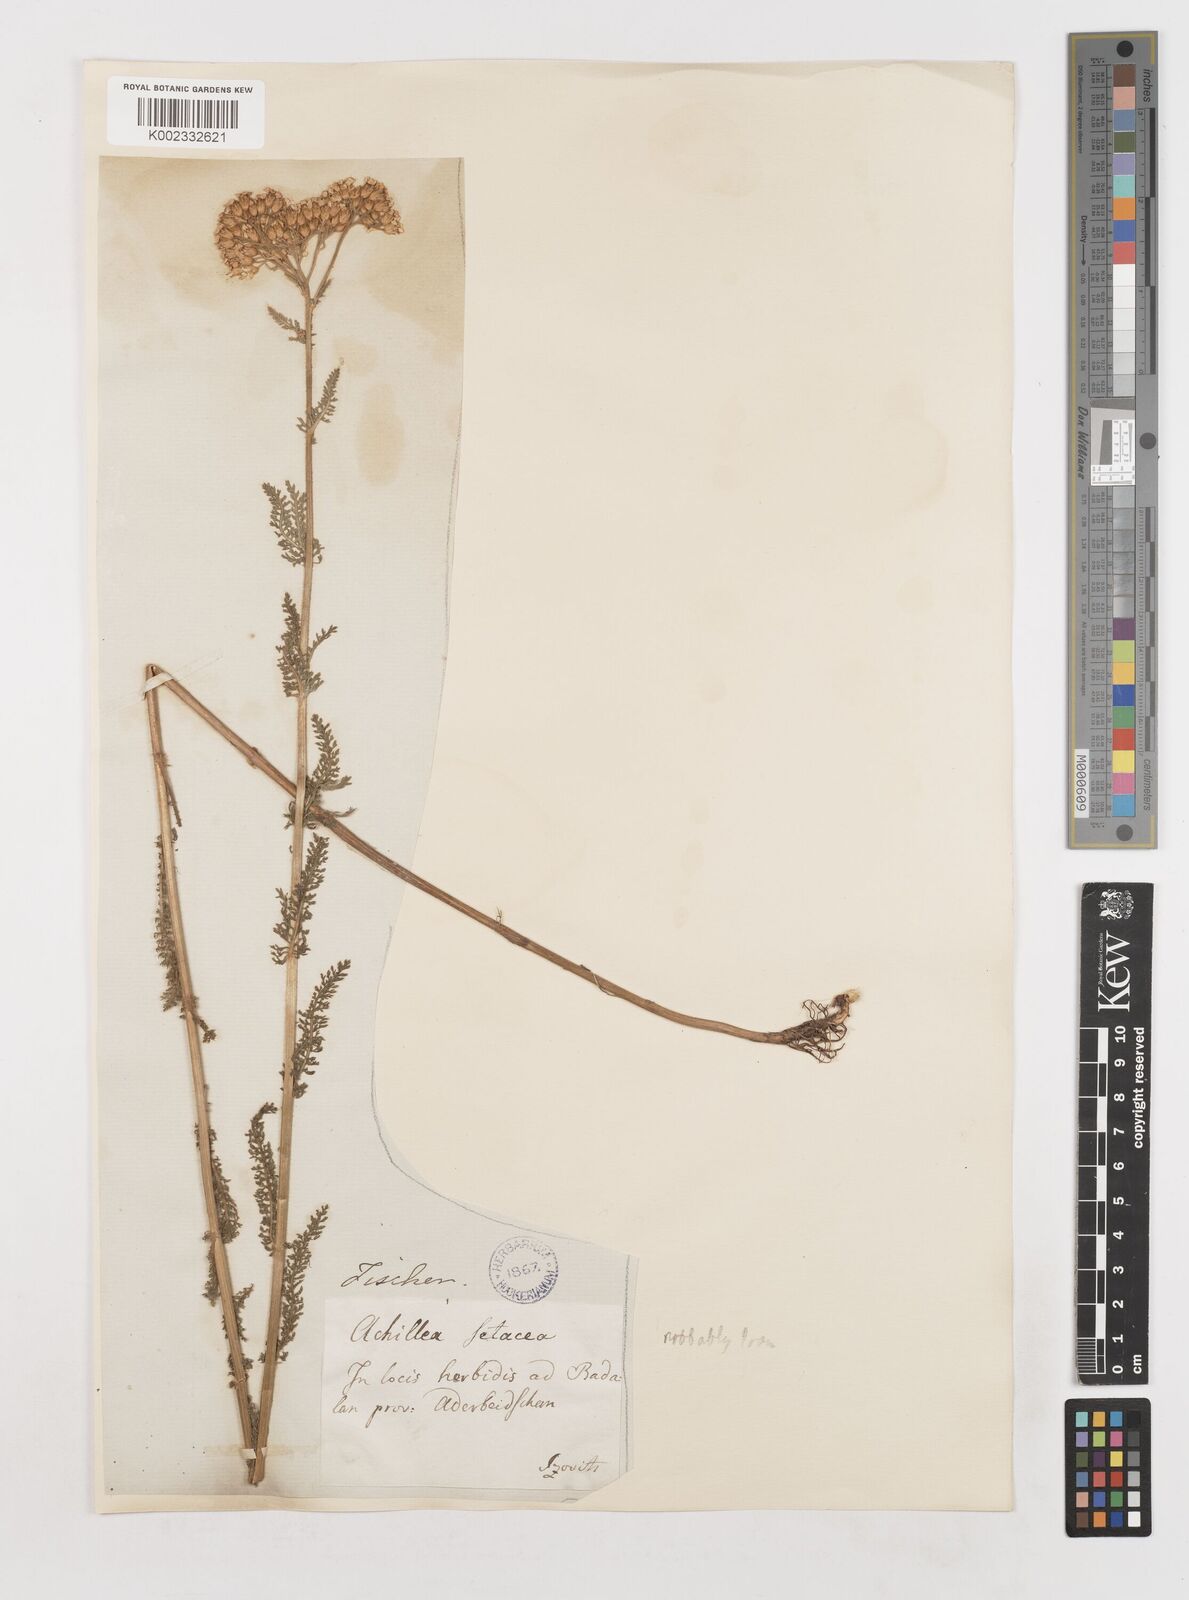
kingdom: Plantae
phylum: Tracheophyta
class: Magnoliopsida
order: Asterales
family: Asteraceae
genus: Achillea
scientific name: Achillea
